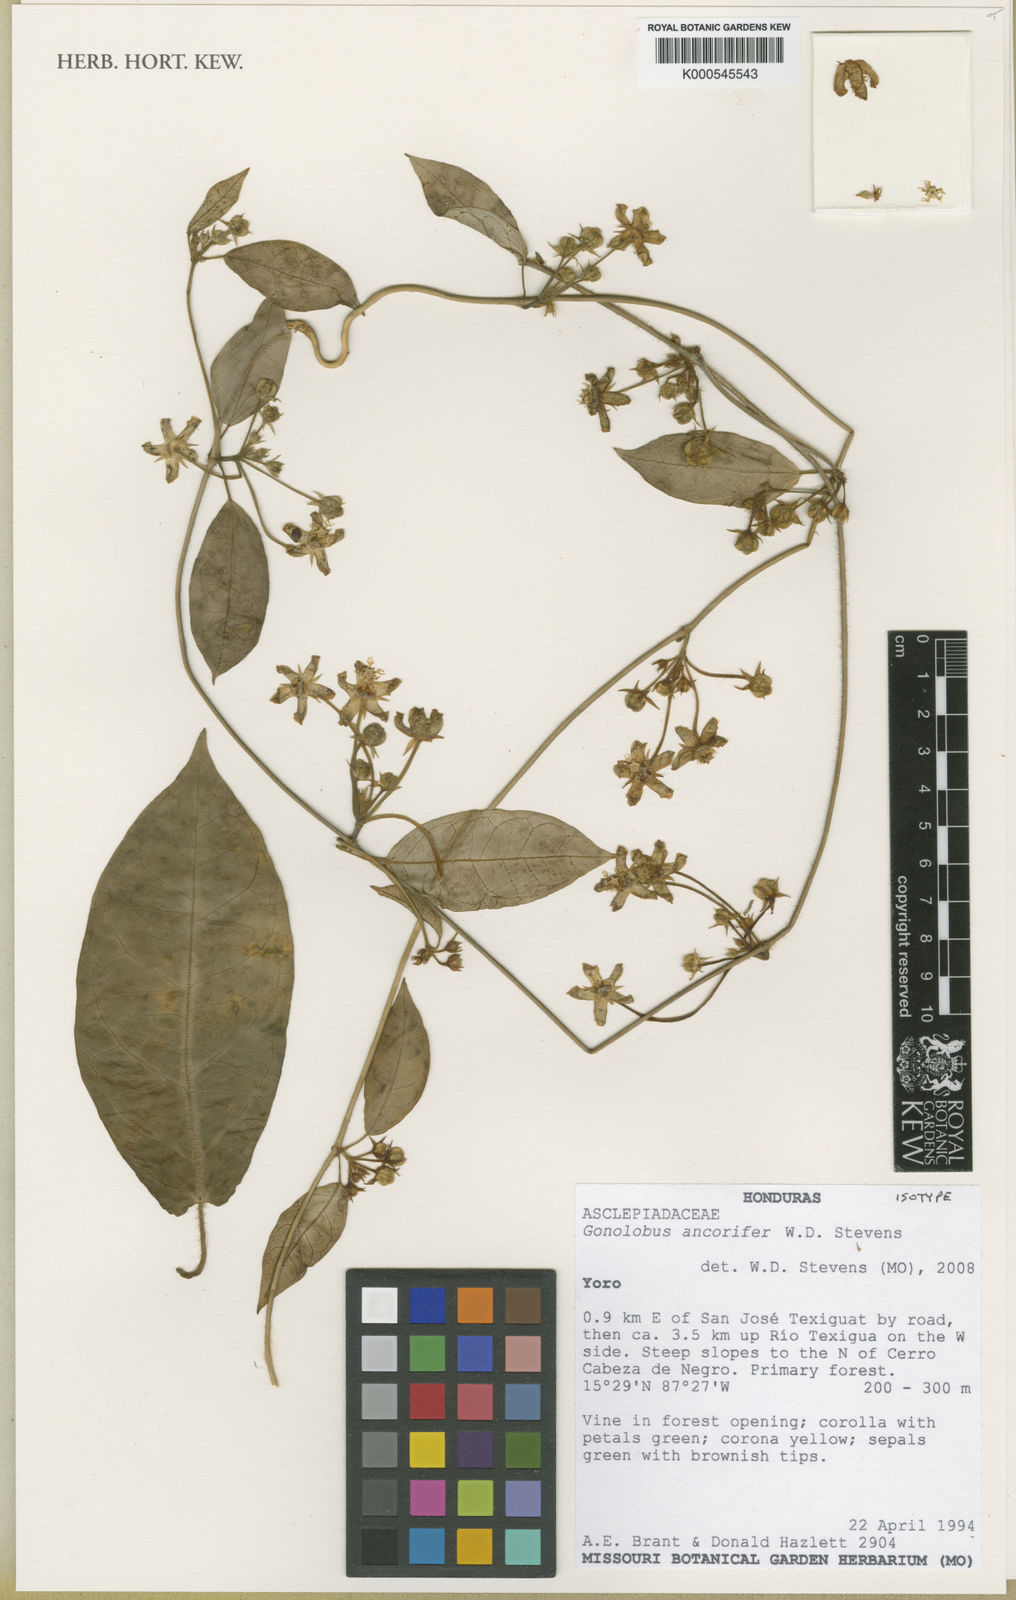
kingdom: Plantae
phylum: Tracheophyta
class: Magnoliopsida
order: Gentianales
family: Apocynaceae
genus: Gonolobus
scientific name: Gonolobus
